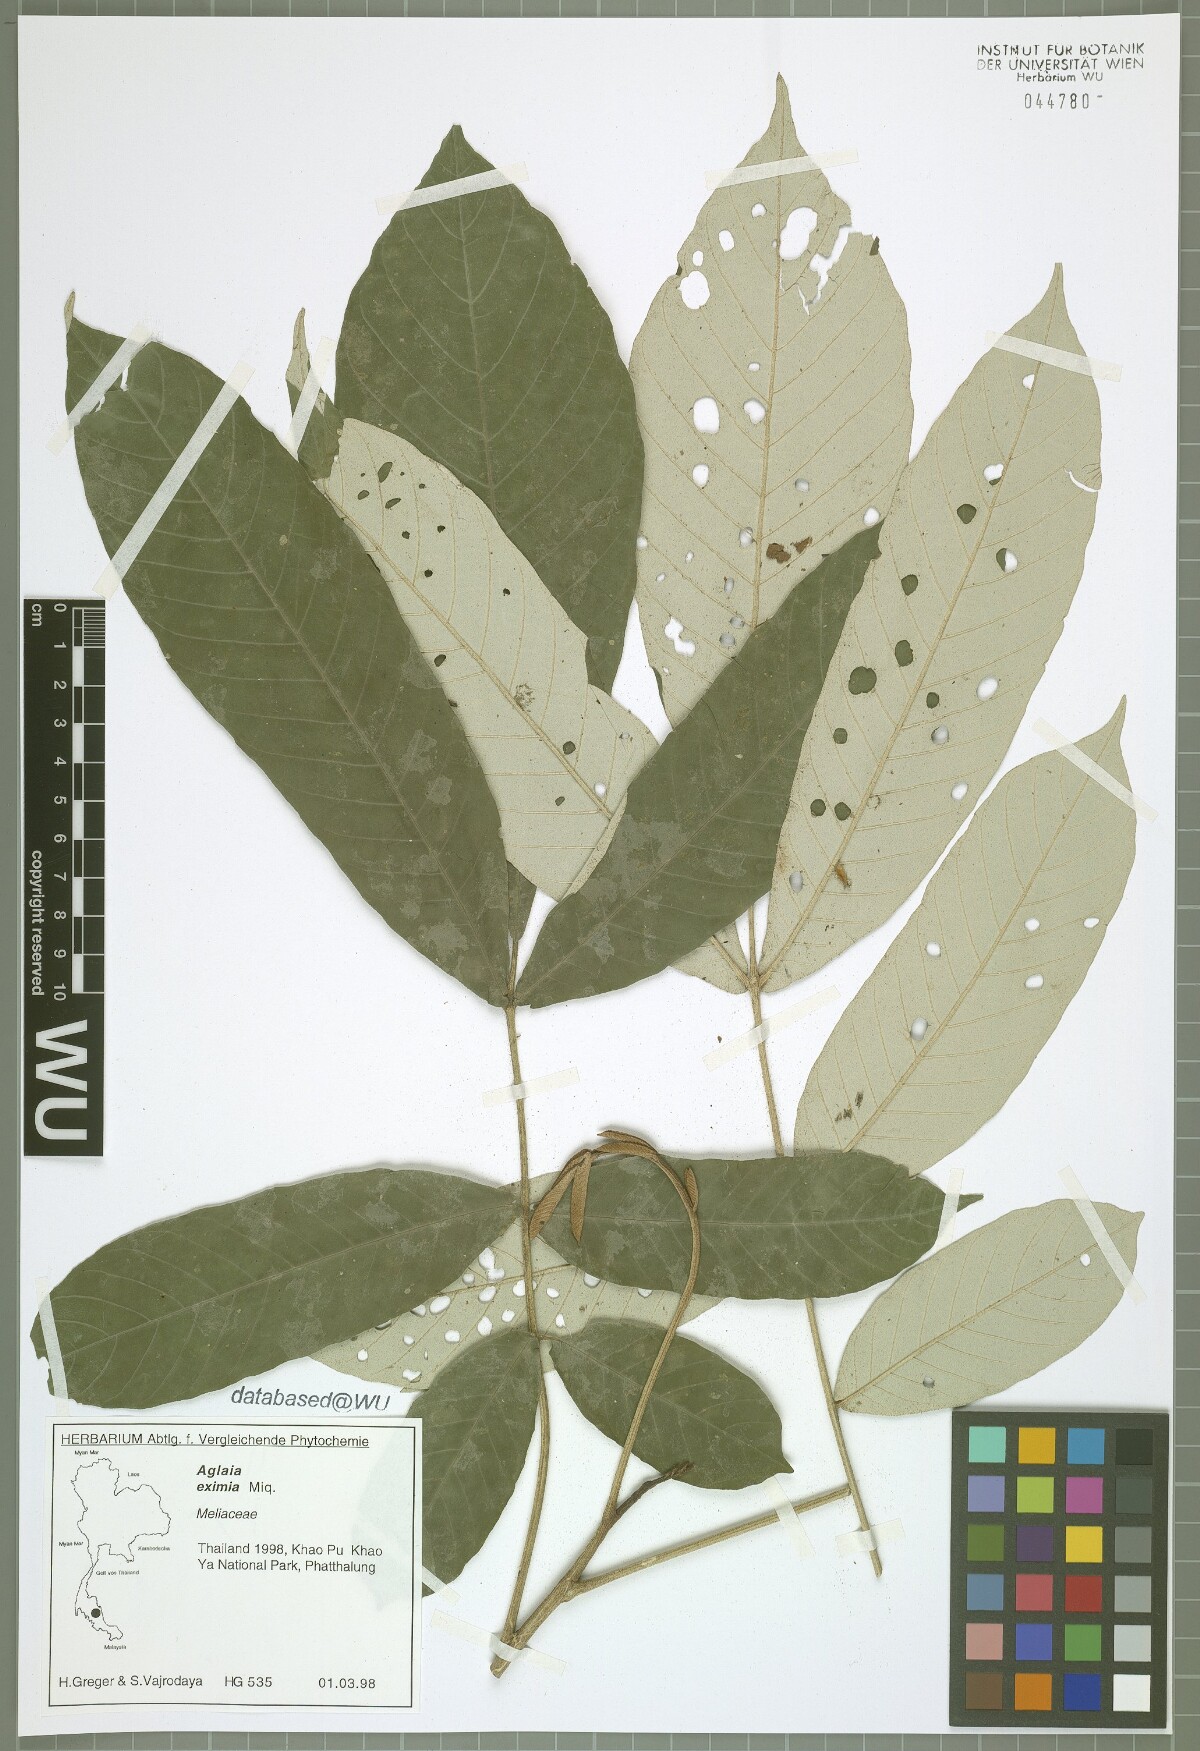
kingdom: Plantae
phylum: Tracheophyta
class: Magnoliopsida
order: Sapindales
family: Meliaceae
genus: Aglaia
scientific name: Aglaia eximia
